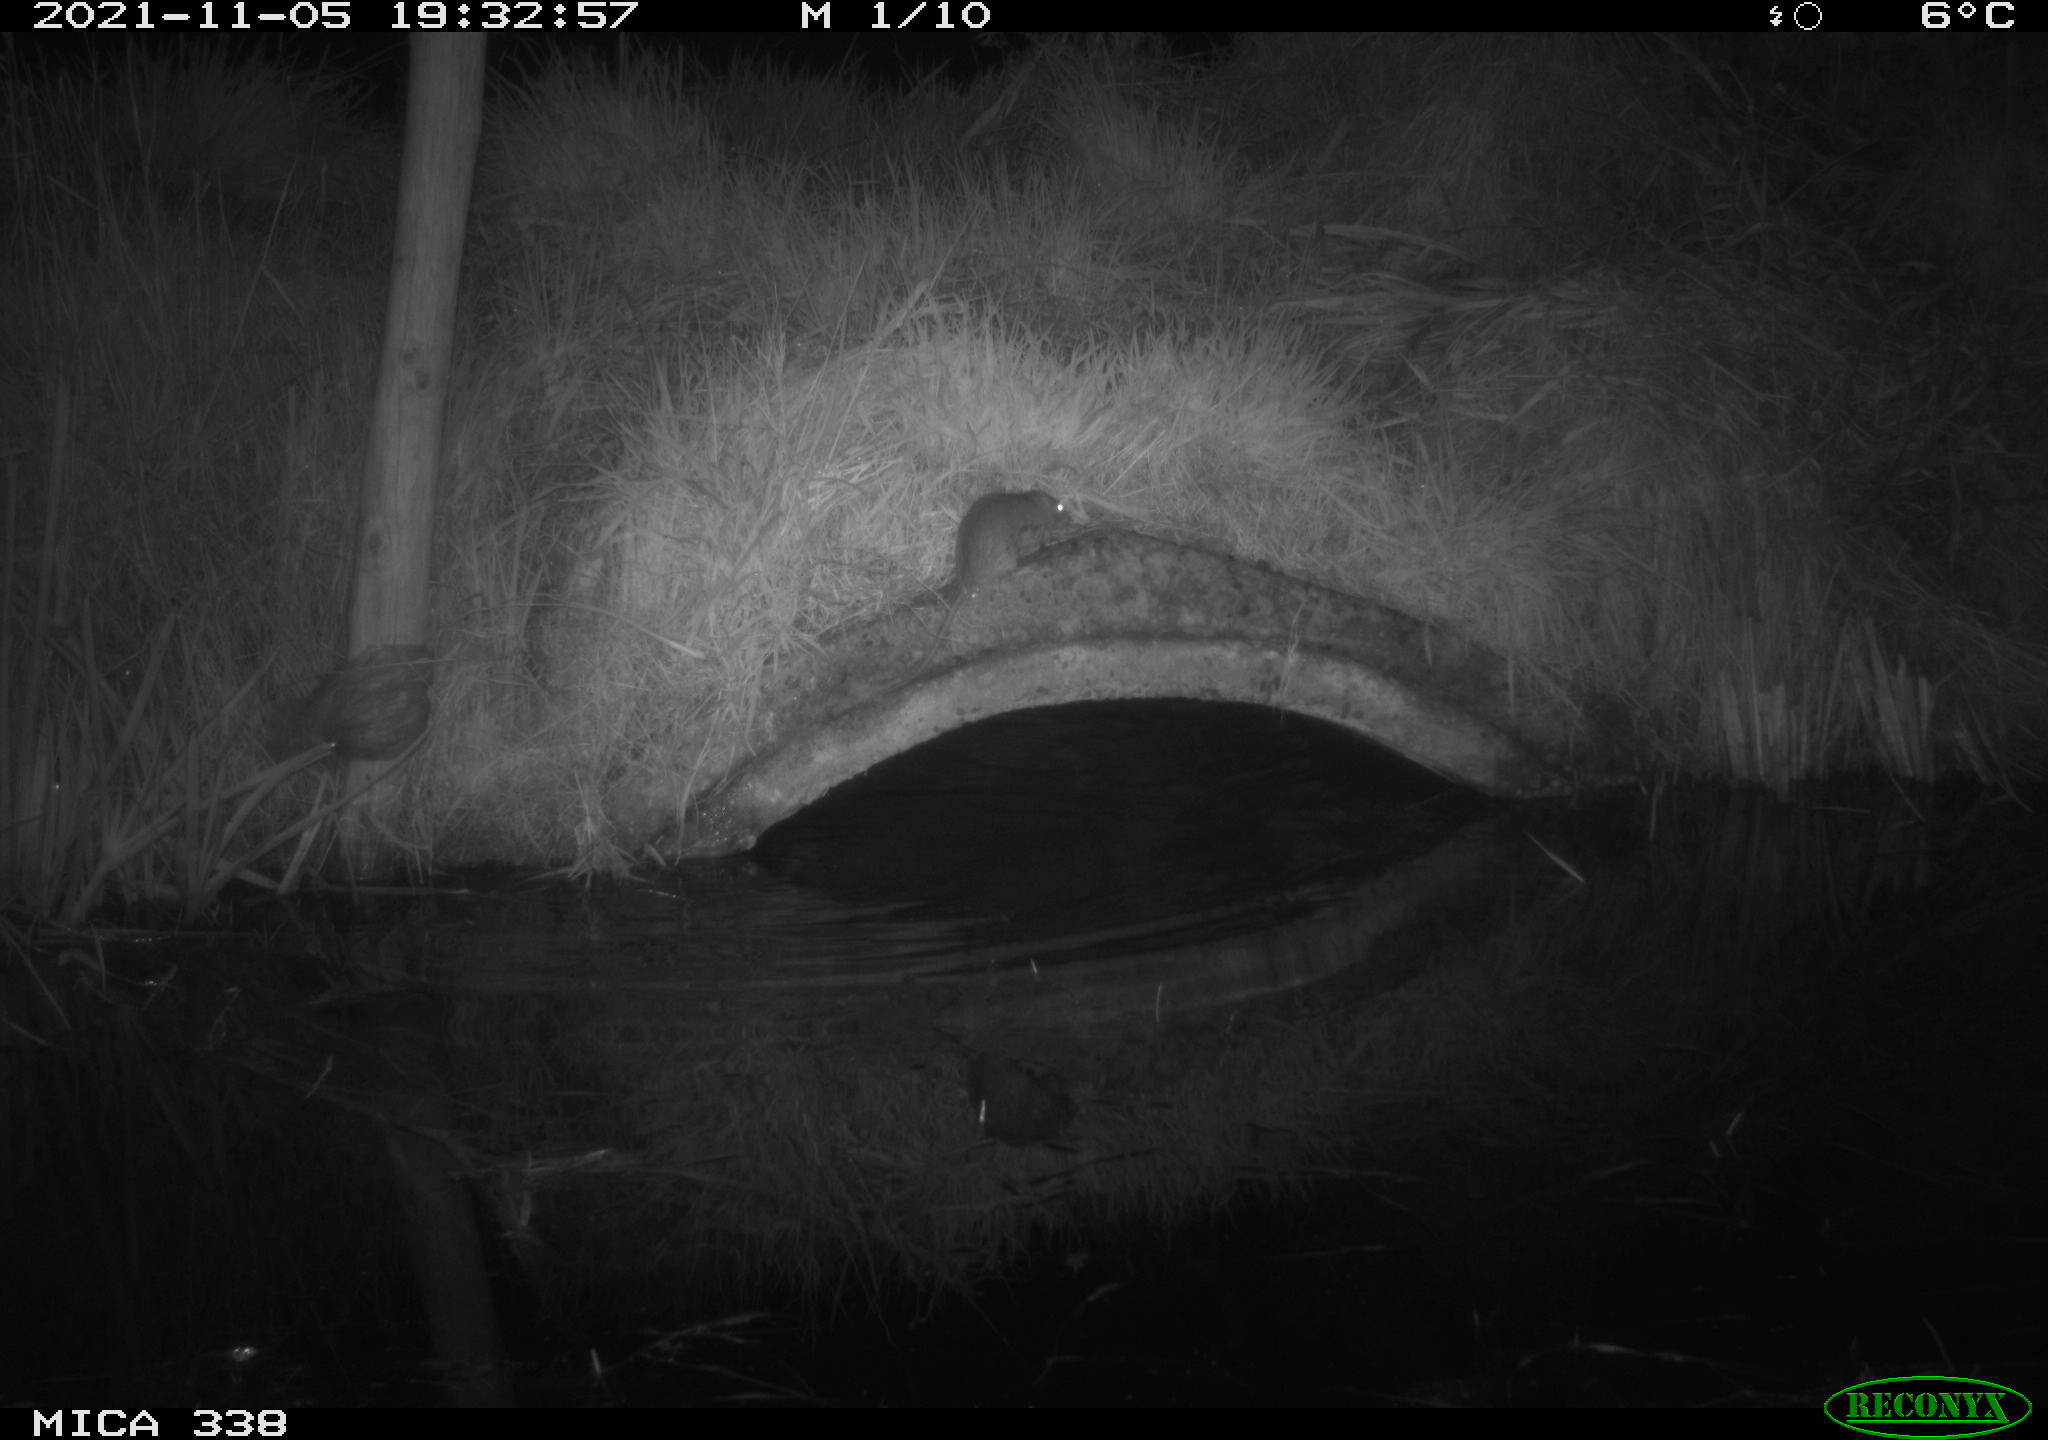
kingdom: Animalia
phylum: Chordata
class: Mammalia
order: Rodentia
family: Muridae
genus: Rattus
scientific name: Rattus norvegicus
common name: Brown rat
